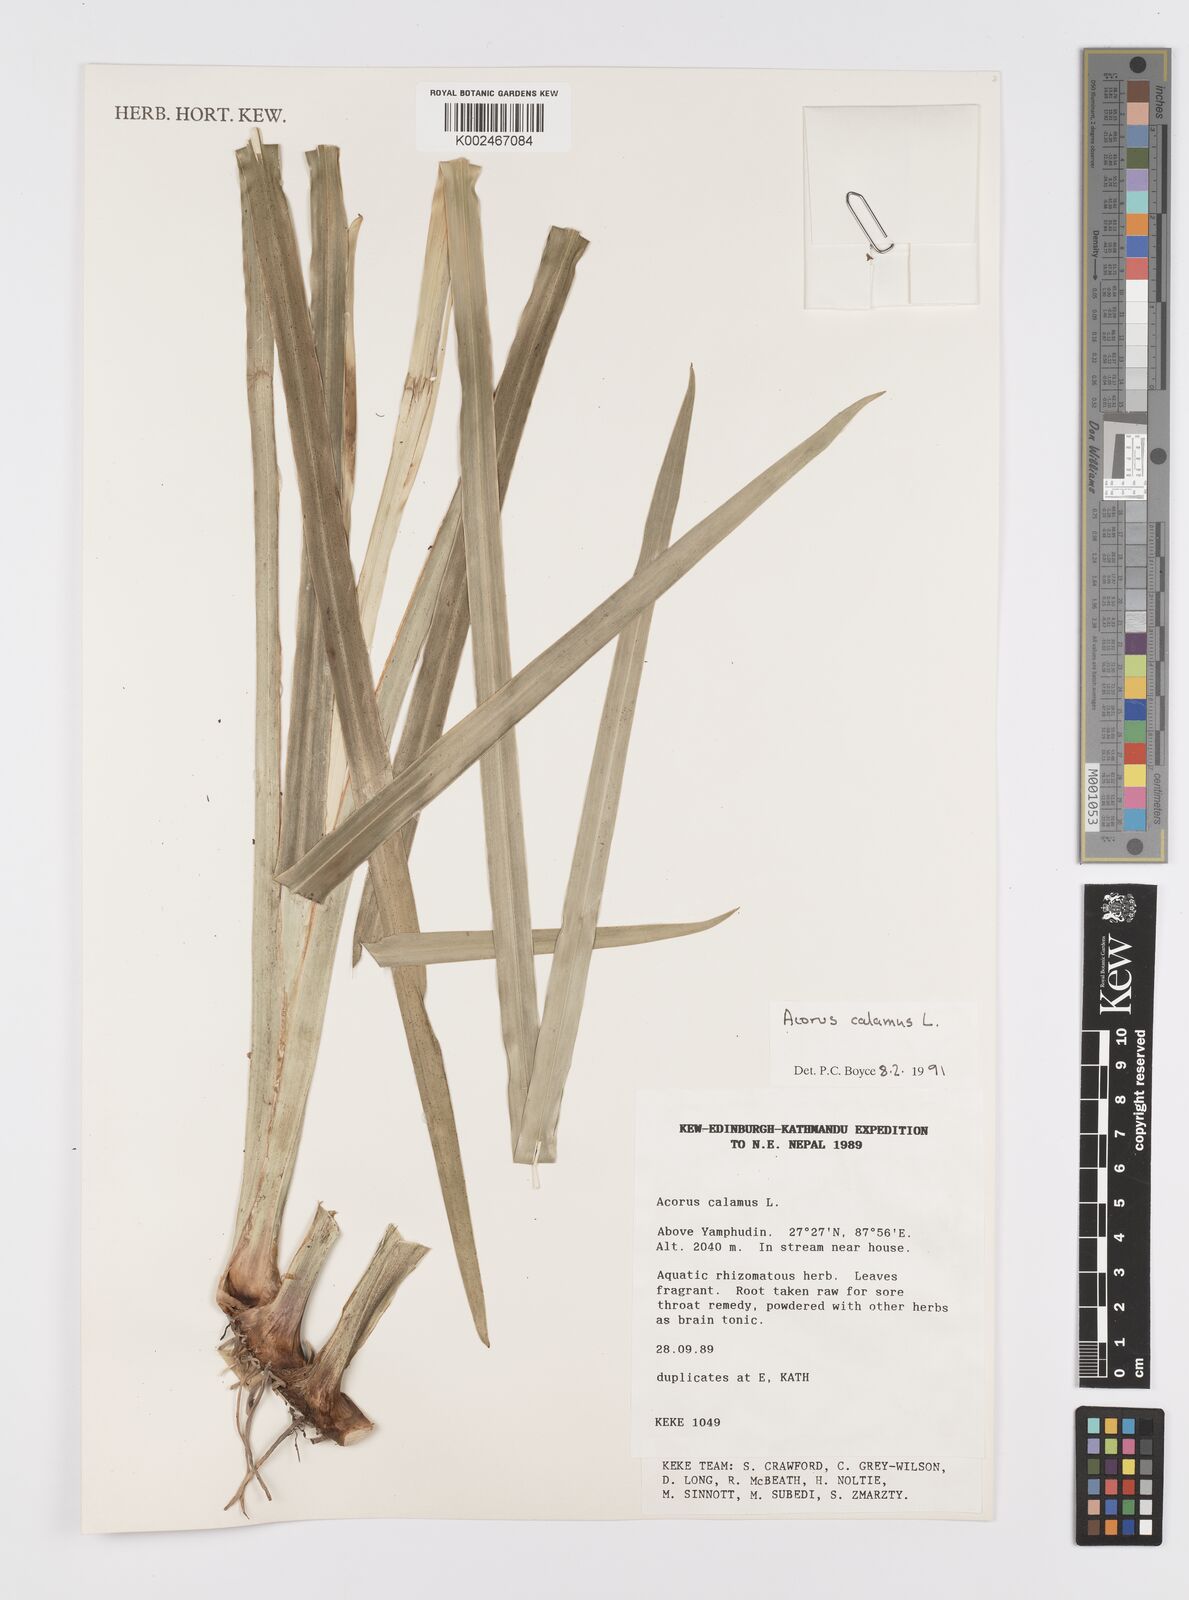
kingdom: Plantae
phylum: Tracheophyta
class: Liliopsida
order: Acorales
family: Acoraceae
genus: Acorus
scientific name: Acorus calamus
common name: Sweet-flag
